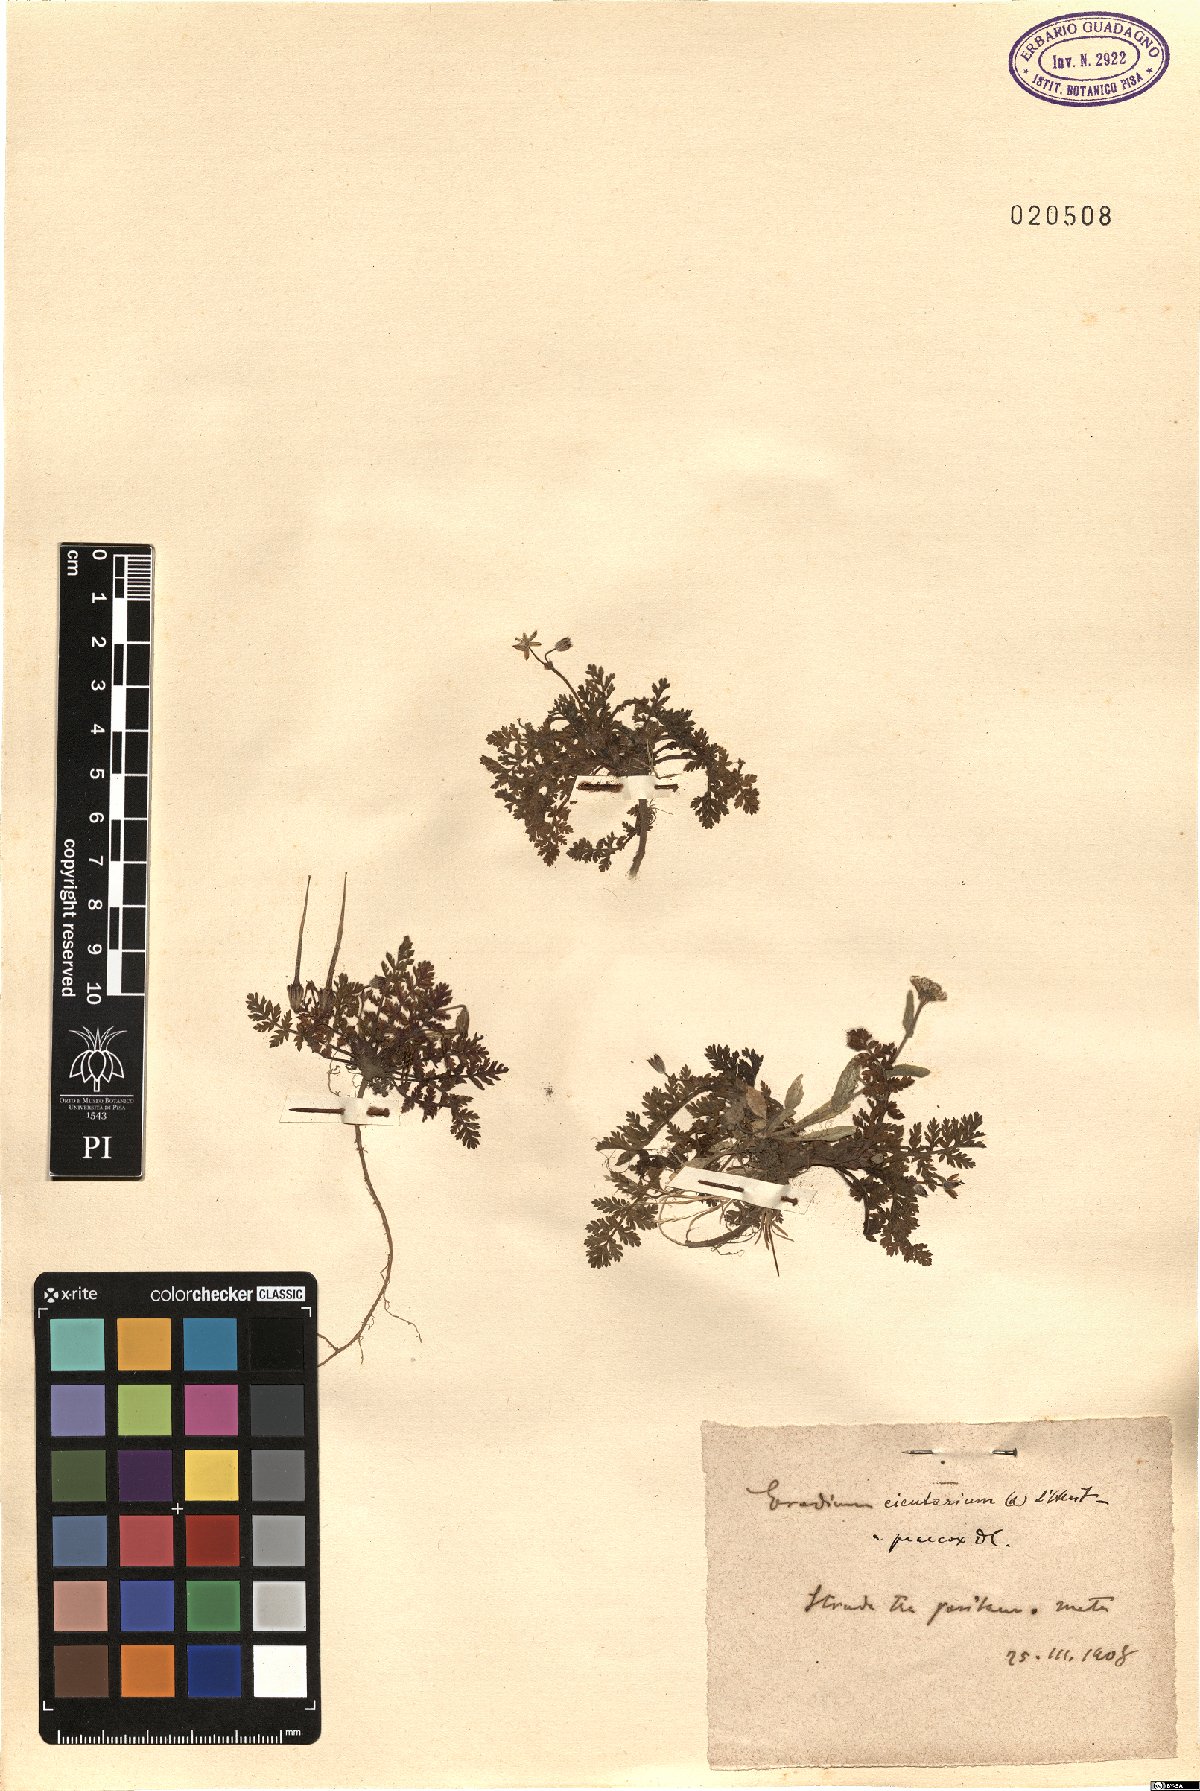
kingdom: Plantae
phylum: Tracheophyta
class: Magnoliopsida
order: Geraniales
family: Geraniaceae
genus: Erodium
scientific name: Erodium cicutarium
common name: Common stork's-bill
